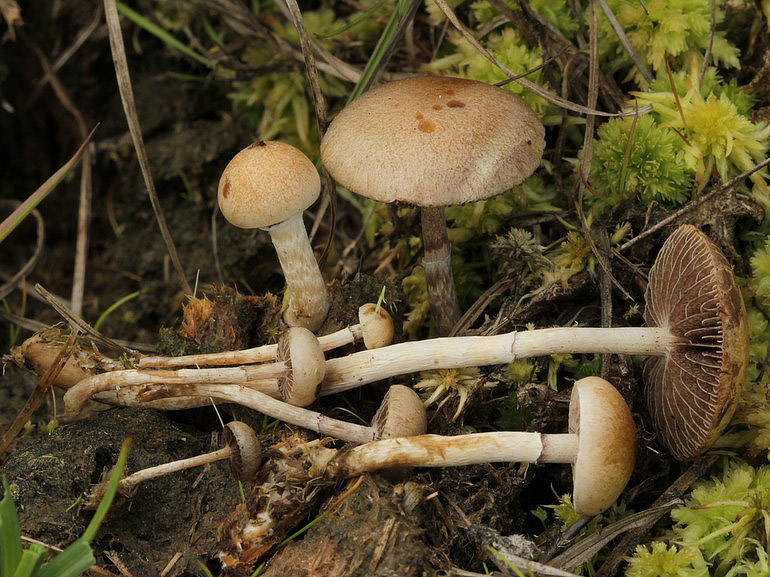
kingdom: Fungi
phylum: Basidiomycota
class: Agaricomycetes
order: Agaricales
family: Strophariaceae
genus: Deconica
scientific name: Deconica moelleri
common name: Møllers stråhat
